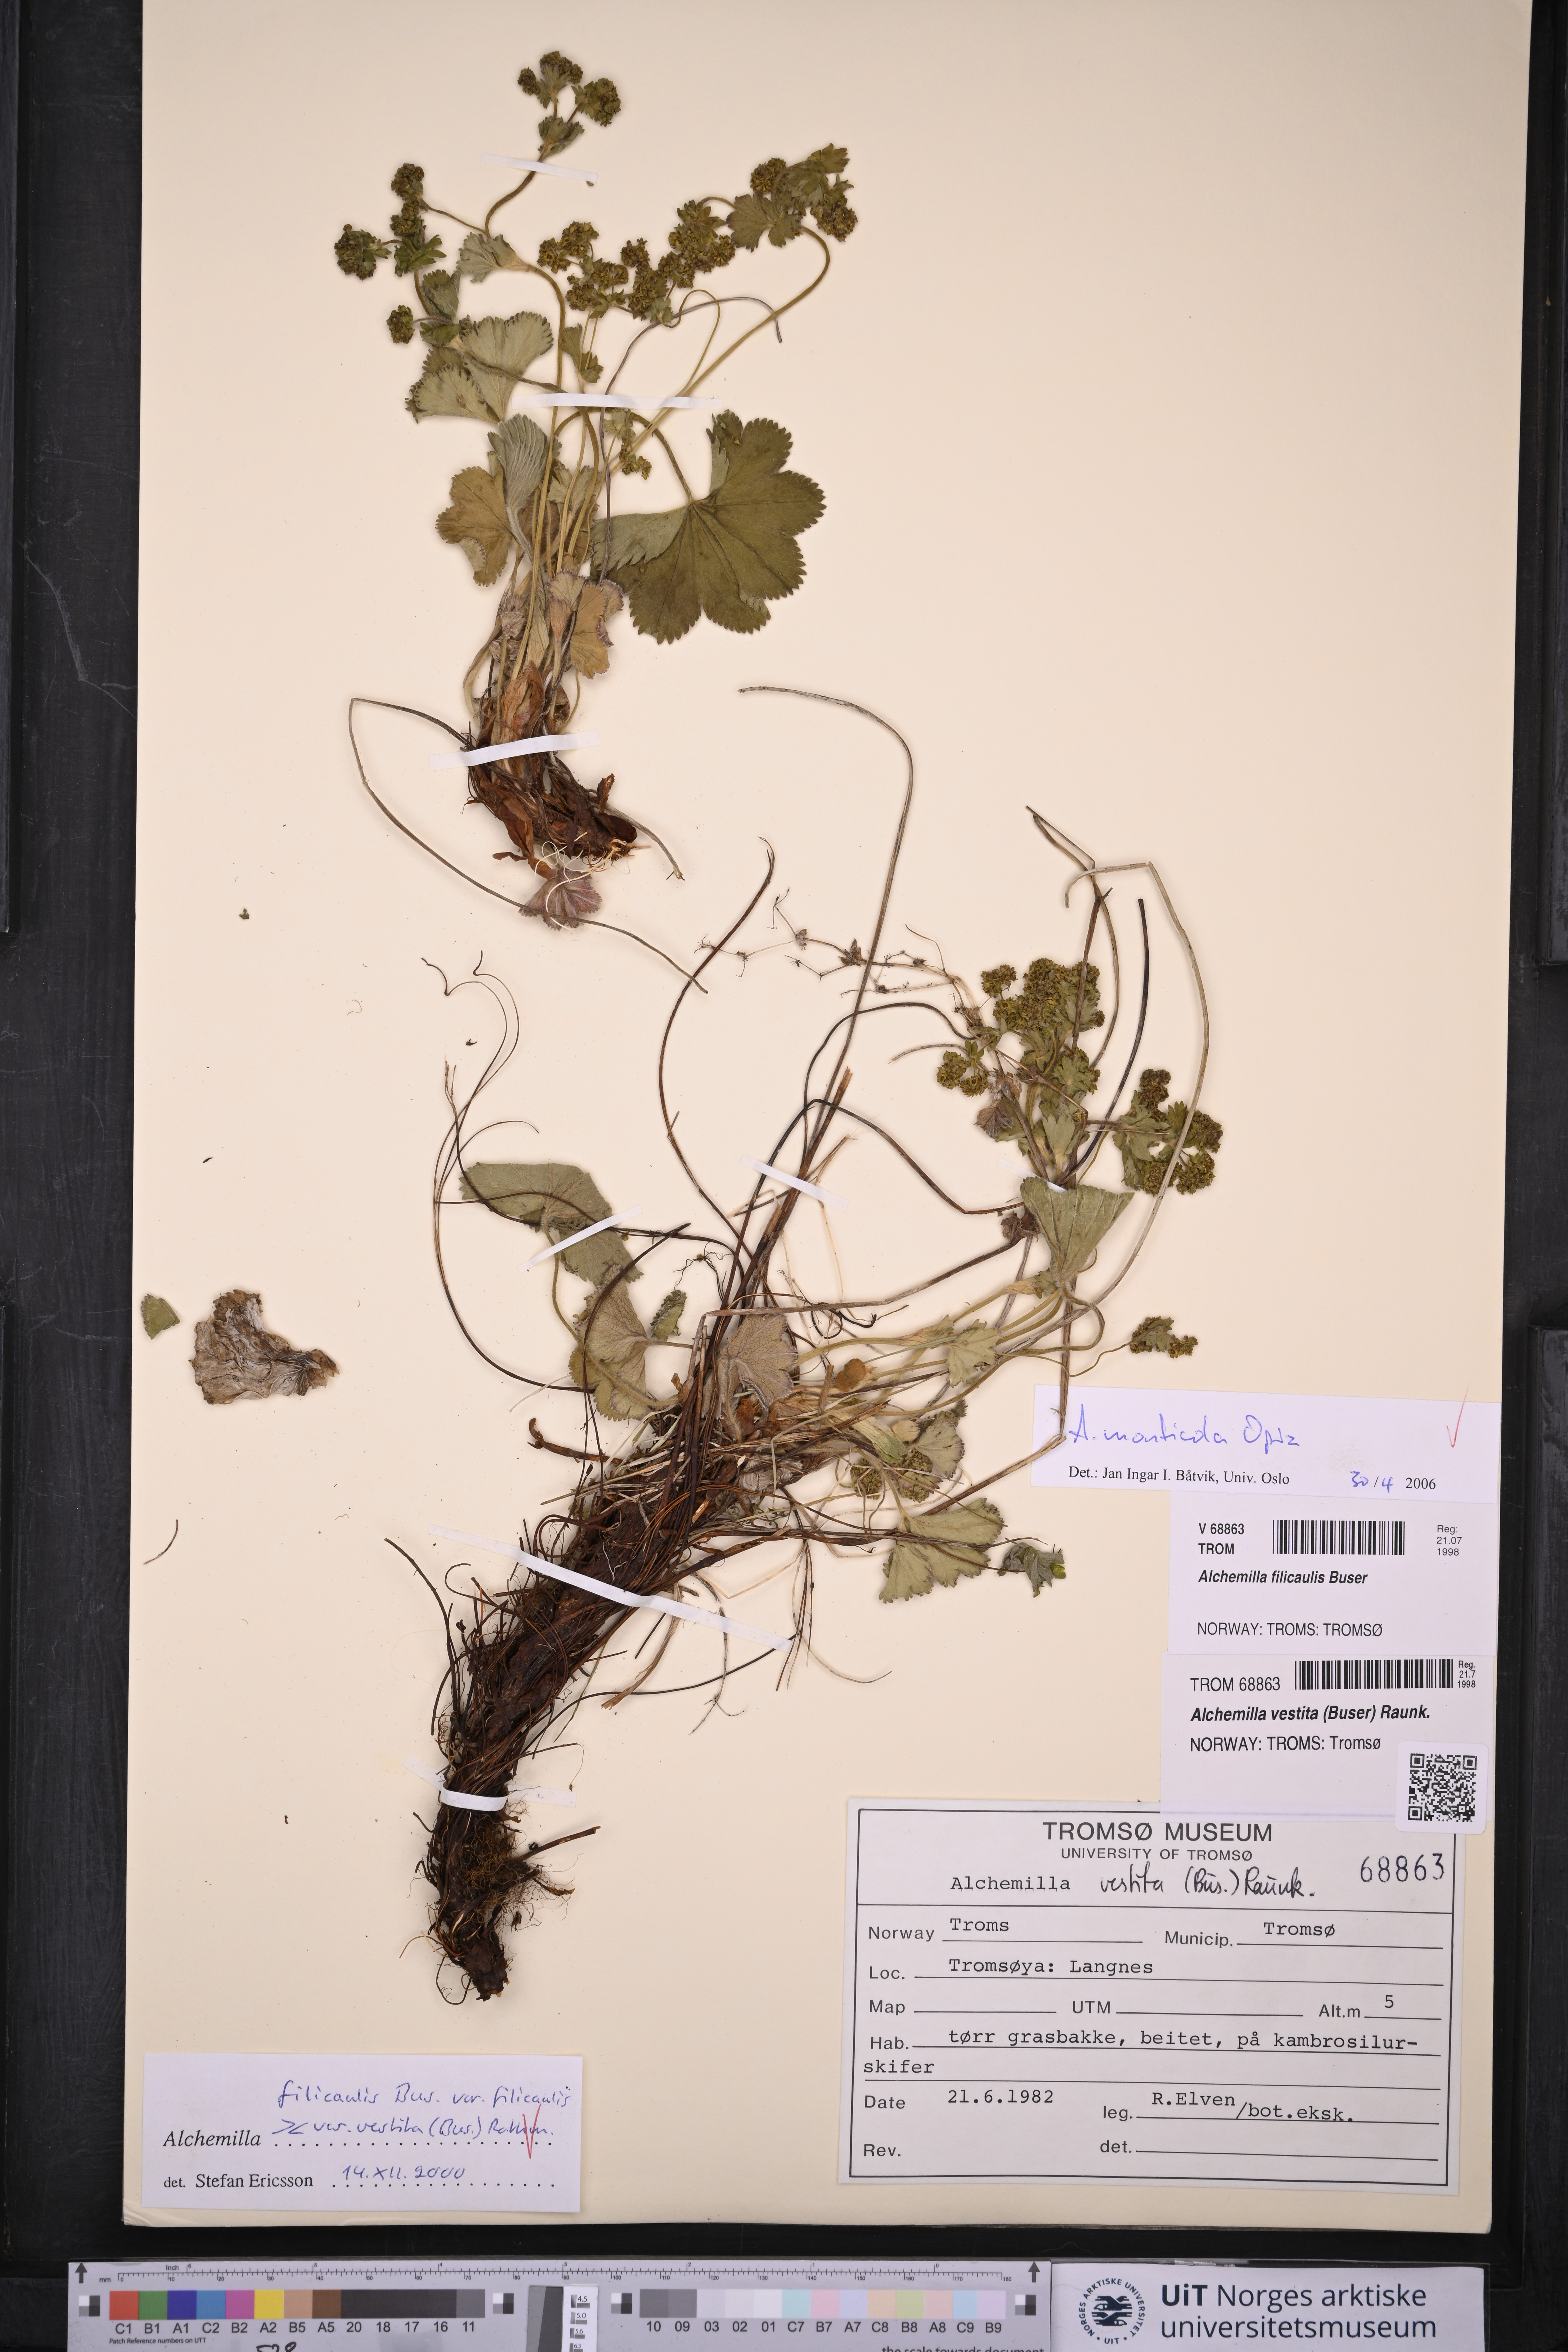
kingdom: Plantae
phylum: Tracheophyta
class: Magnoliopsida
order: Rosales
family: Rosaceae
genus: Alchemilla
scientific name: Alchemilla monticola
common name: Hairy lady's mantle
